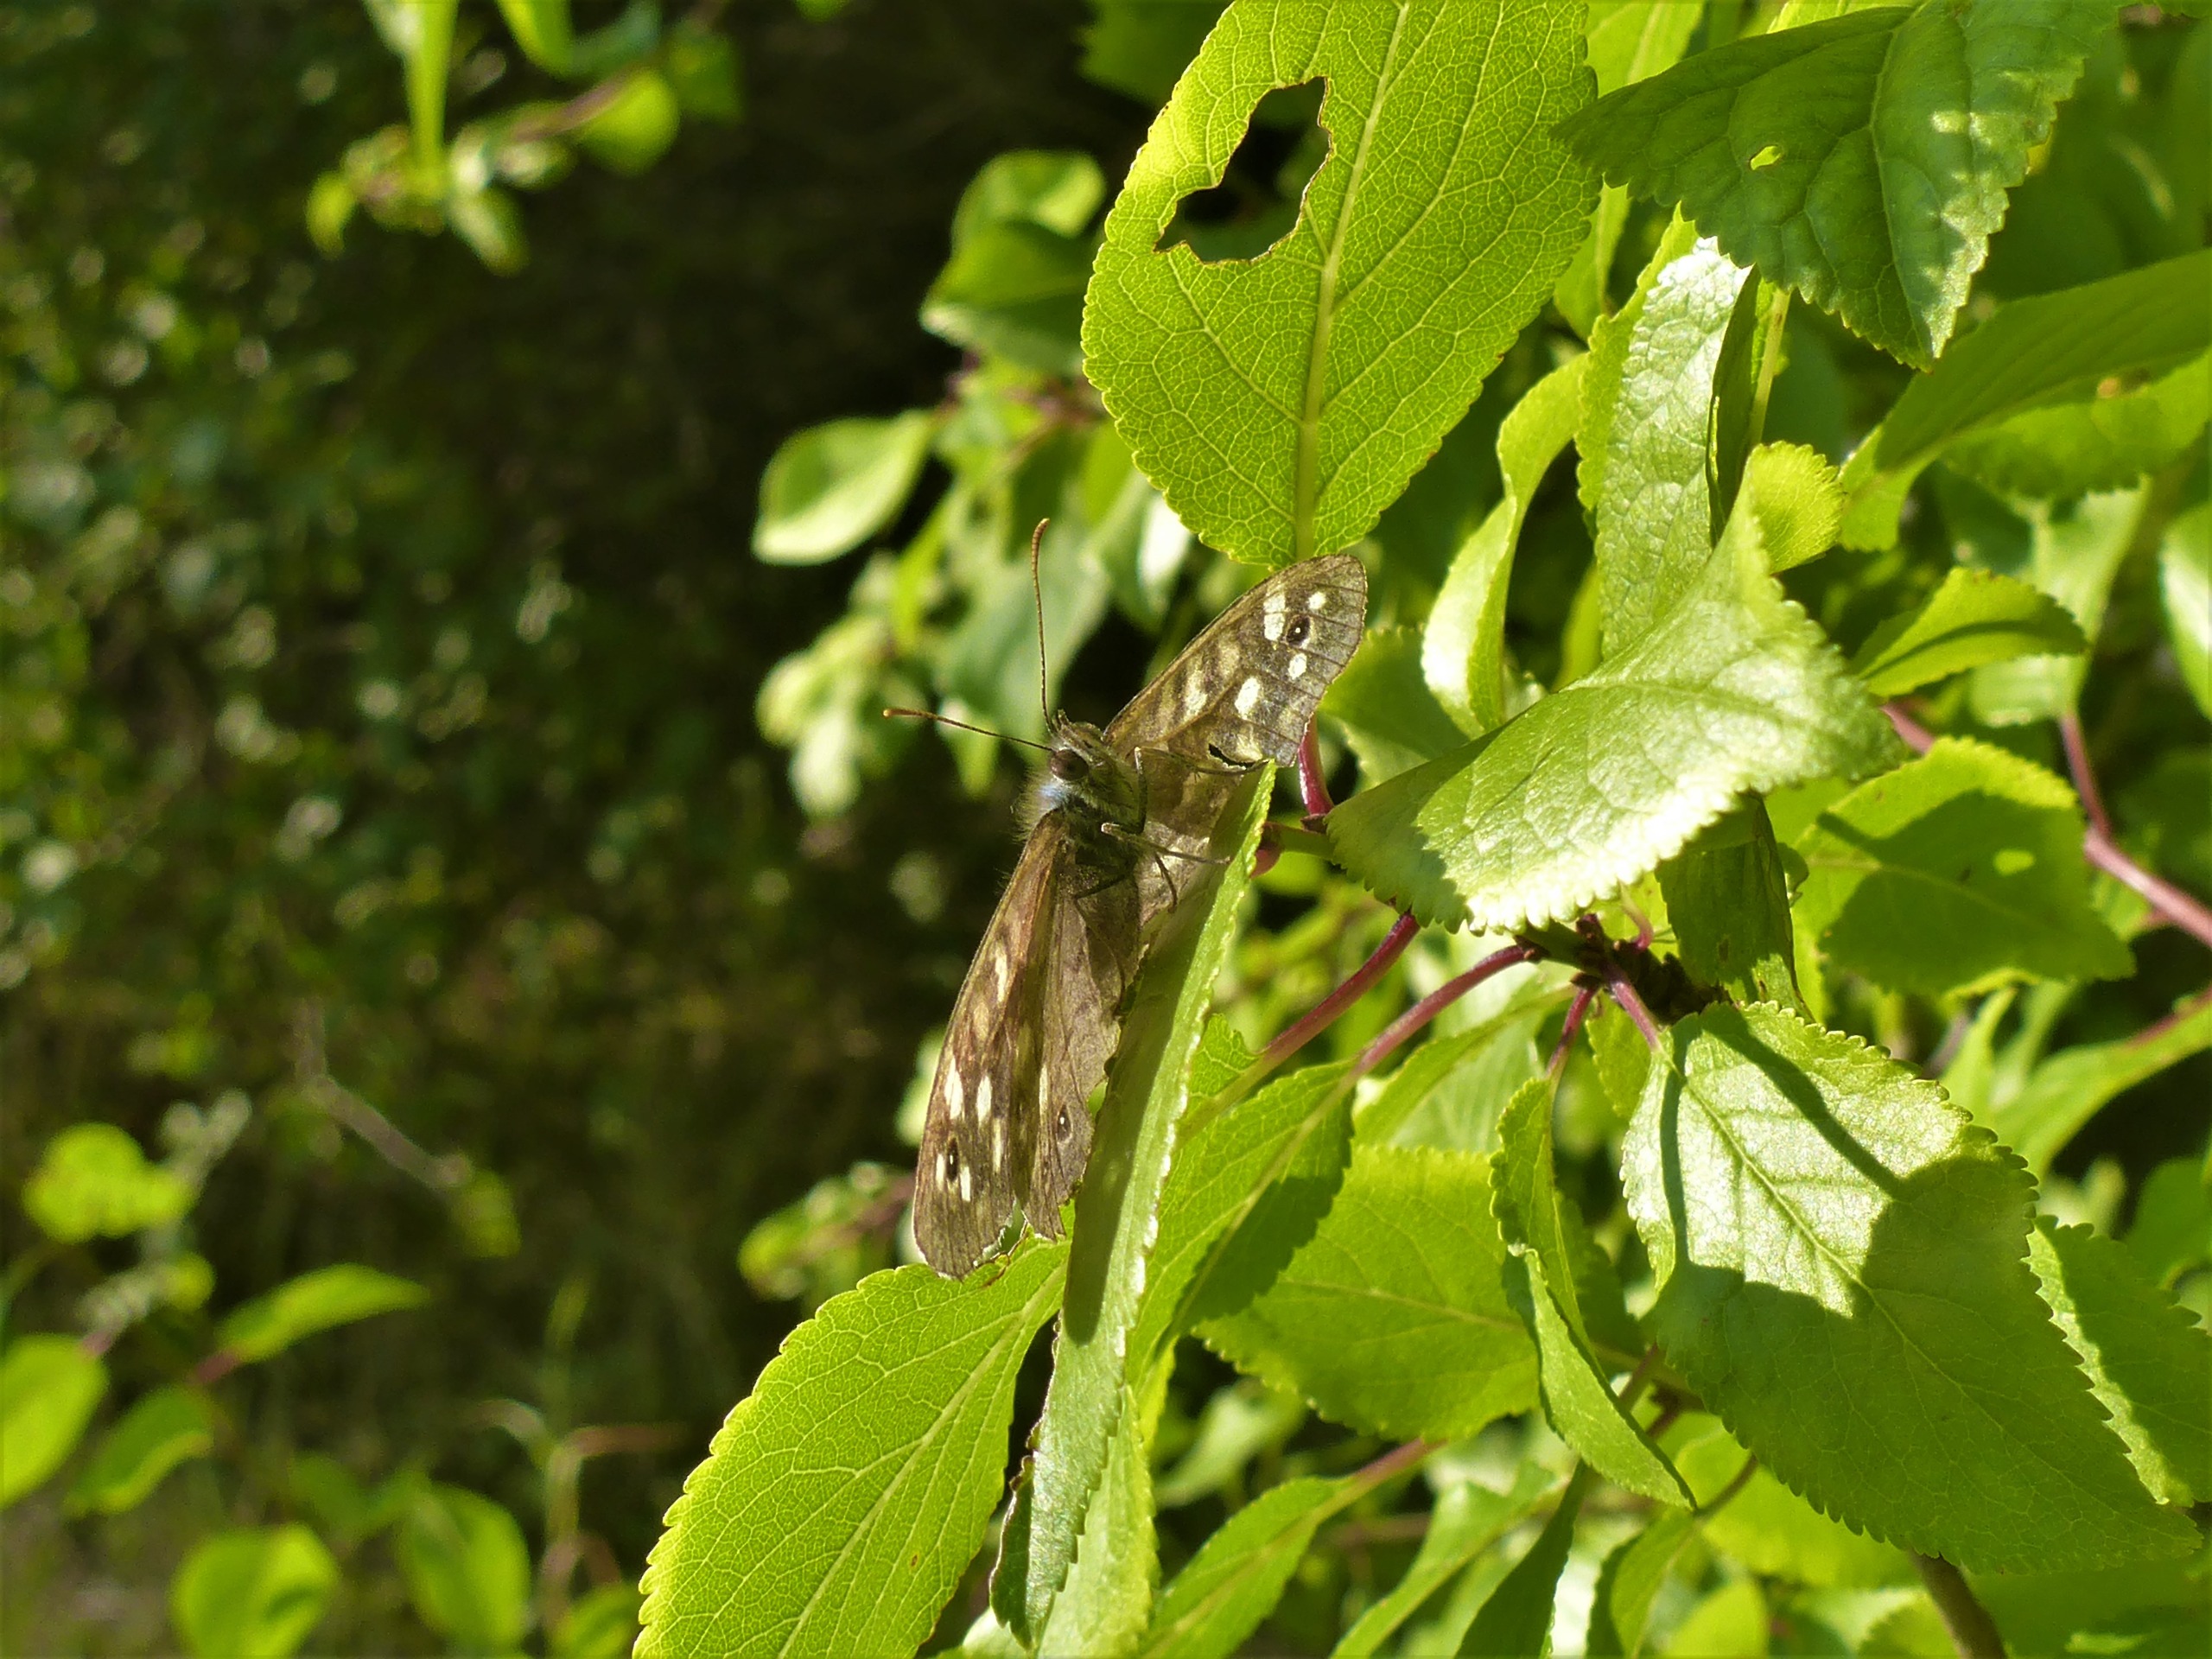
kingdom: Animalia
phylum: Arthropoda
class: Insecta
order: Lepidoptera
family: Nymphalidae
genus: Pararge
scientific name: Pararge aegeria
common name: Skovrandøje
